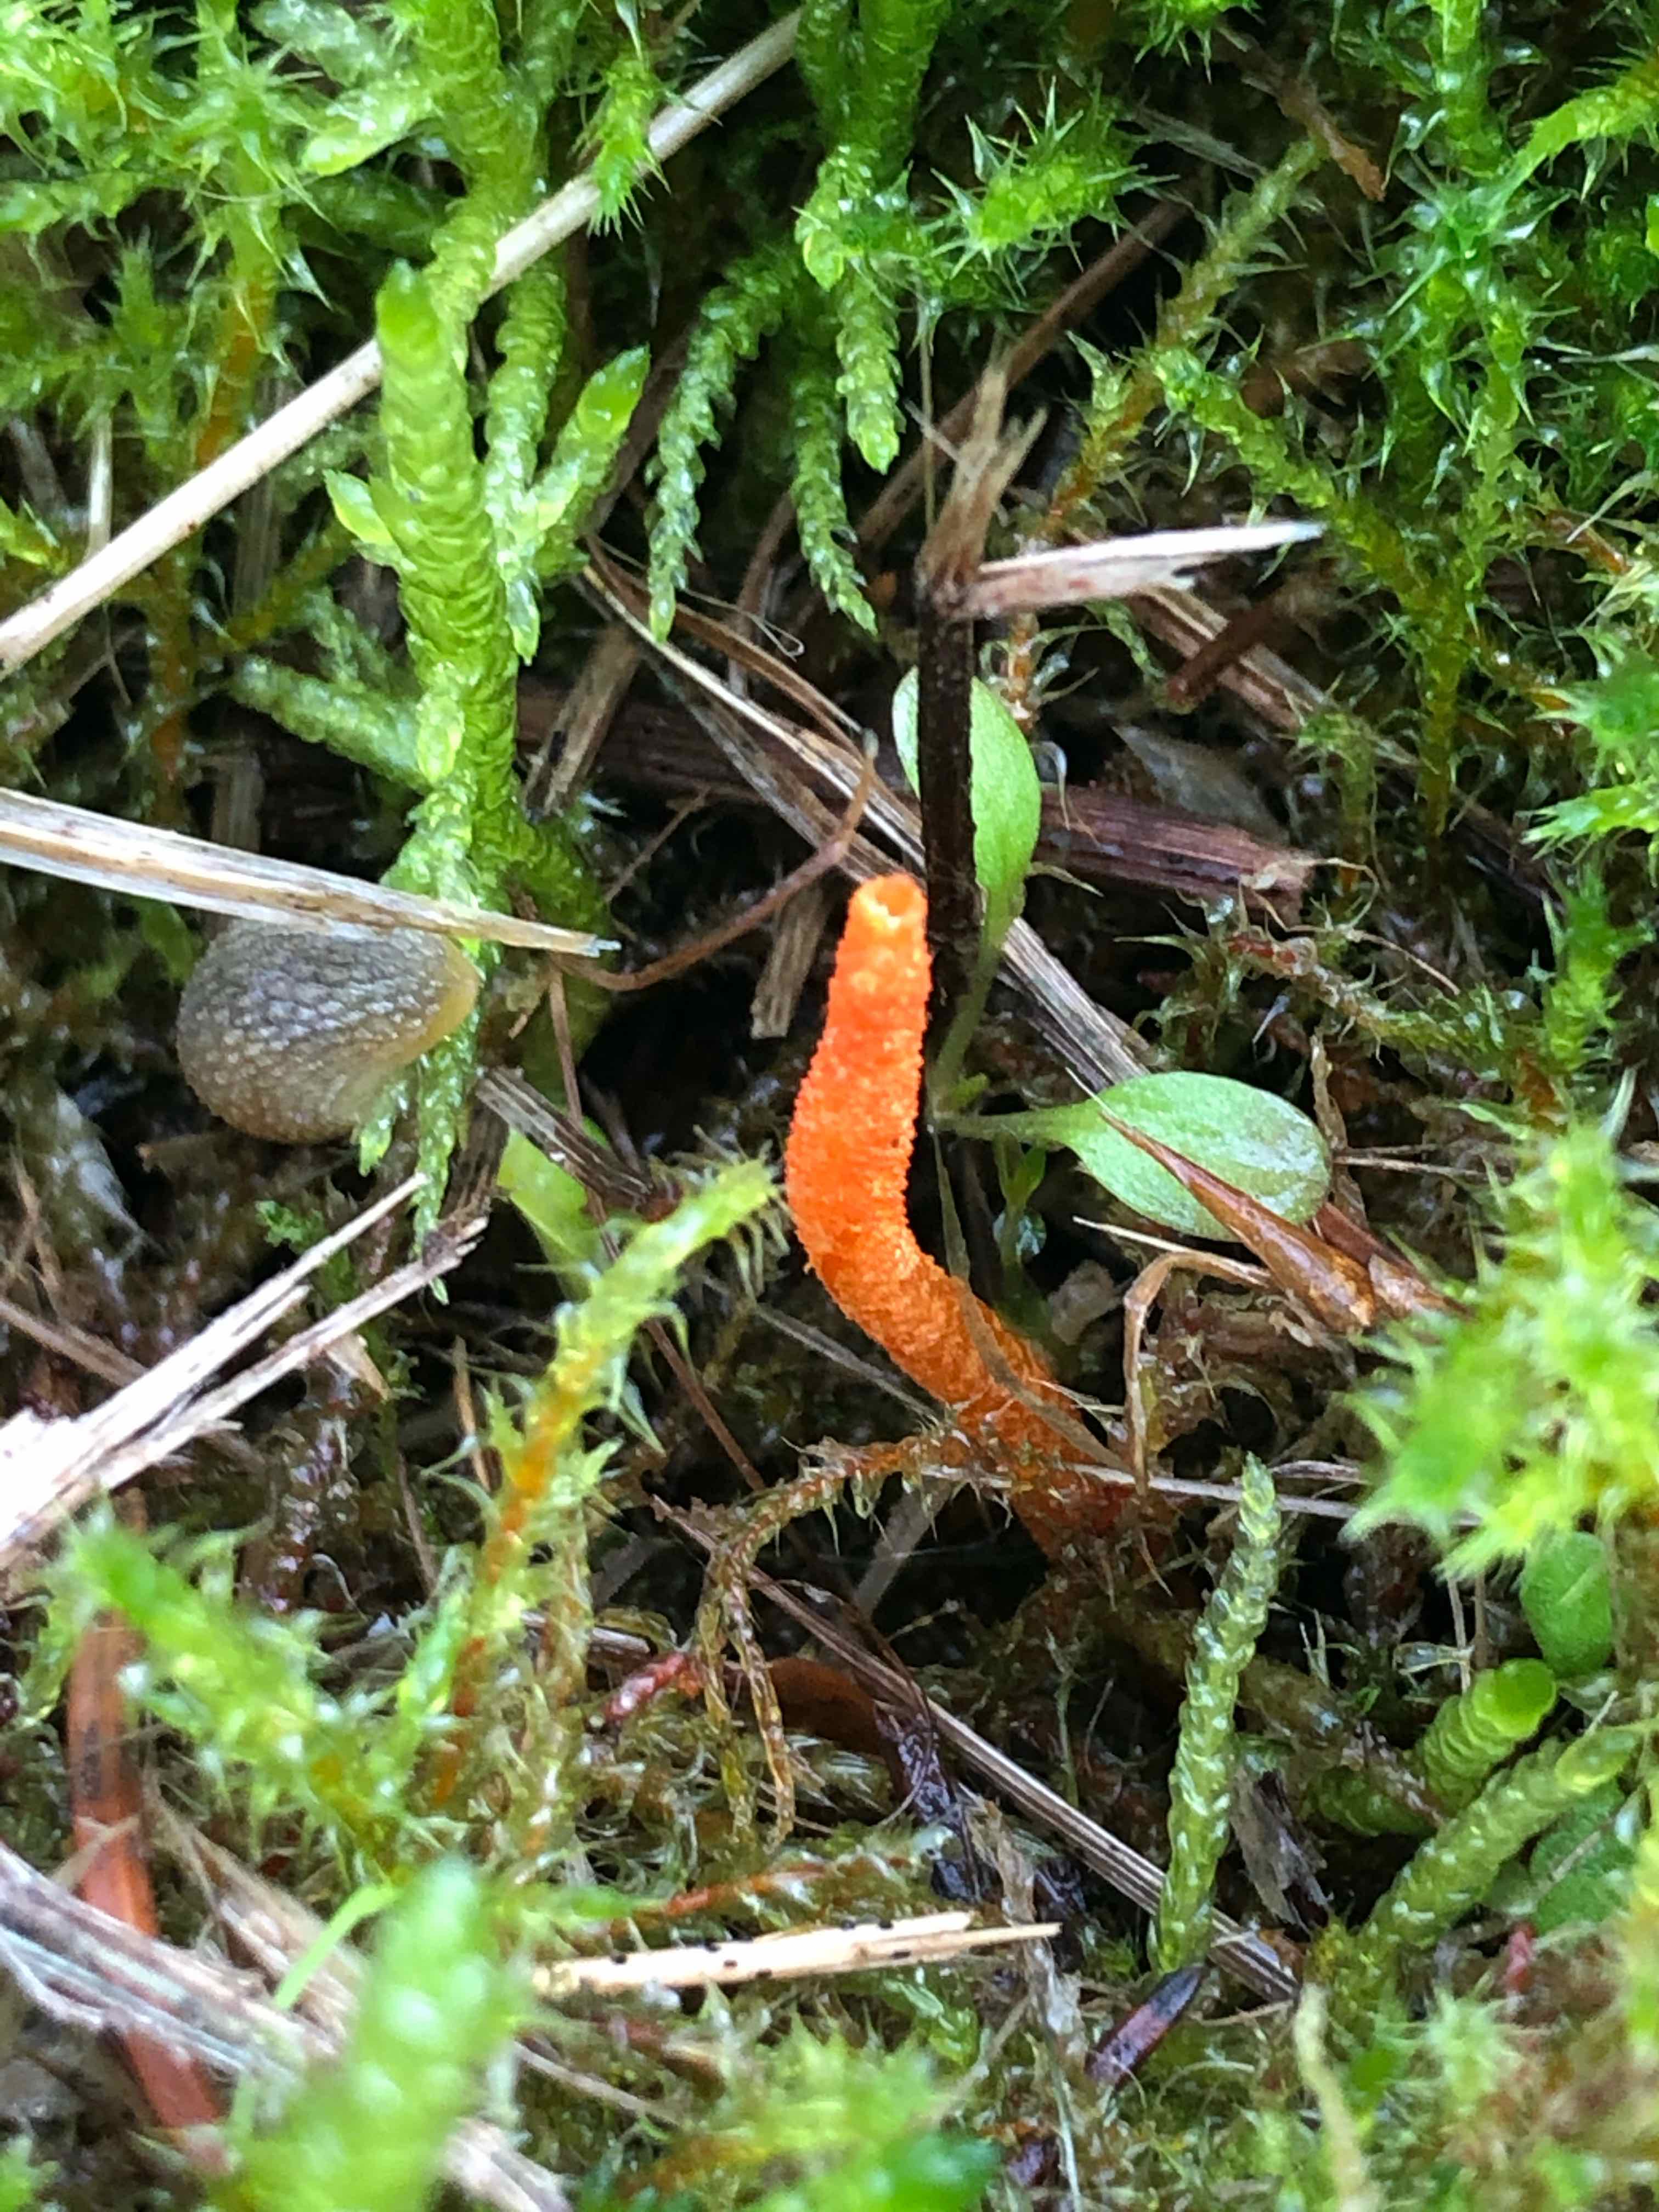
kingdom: Fungi
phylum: Ascomycota
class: Sordariomycetes
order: Hypocreales
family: Cordycipitaceae
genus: Cordyceps
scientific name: Cordyceps militaris
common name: puppe-snyltekølle
